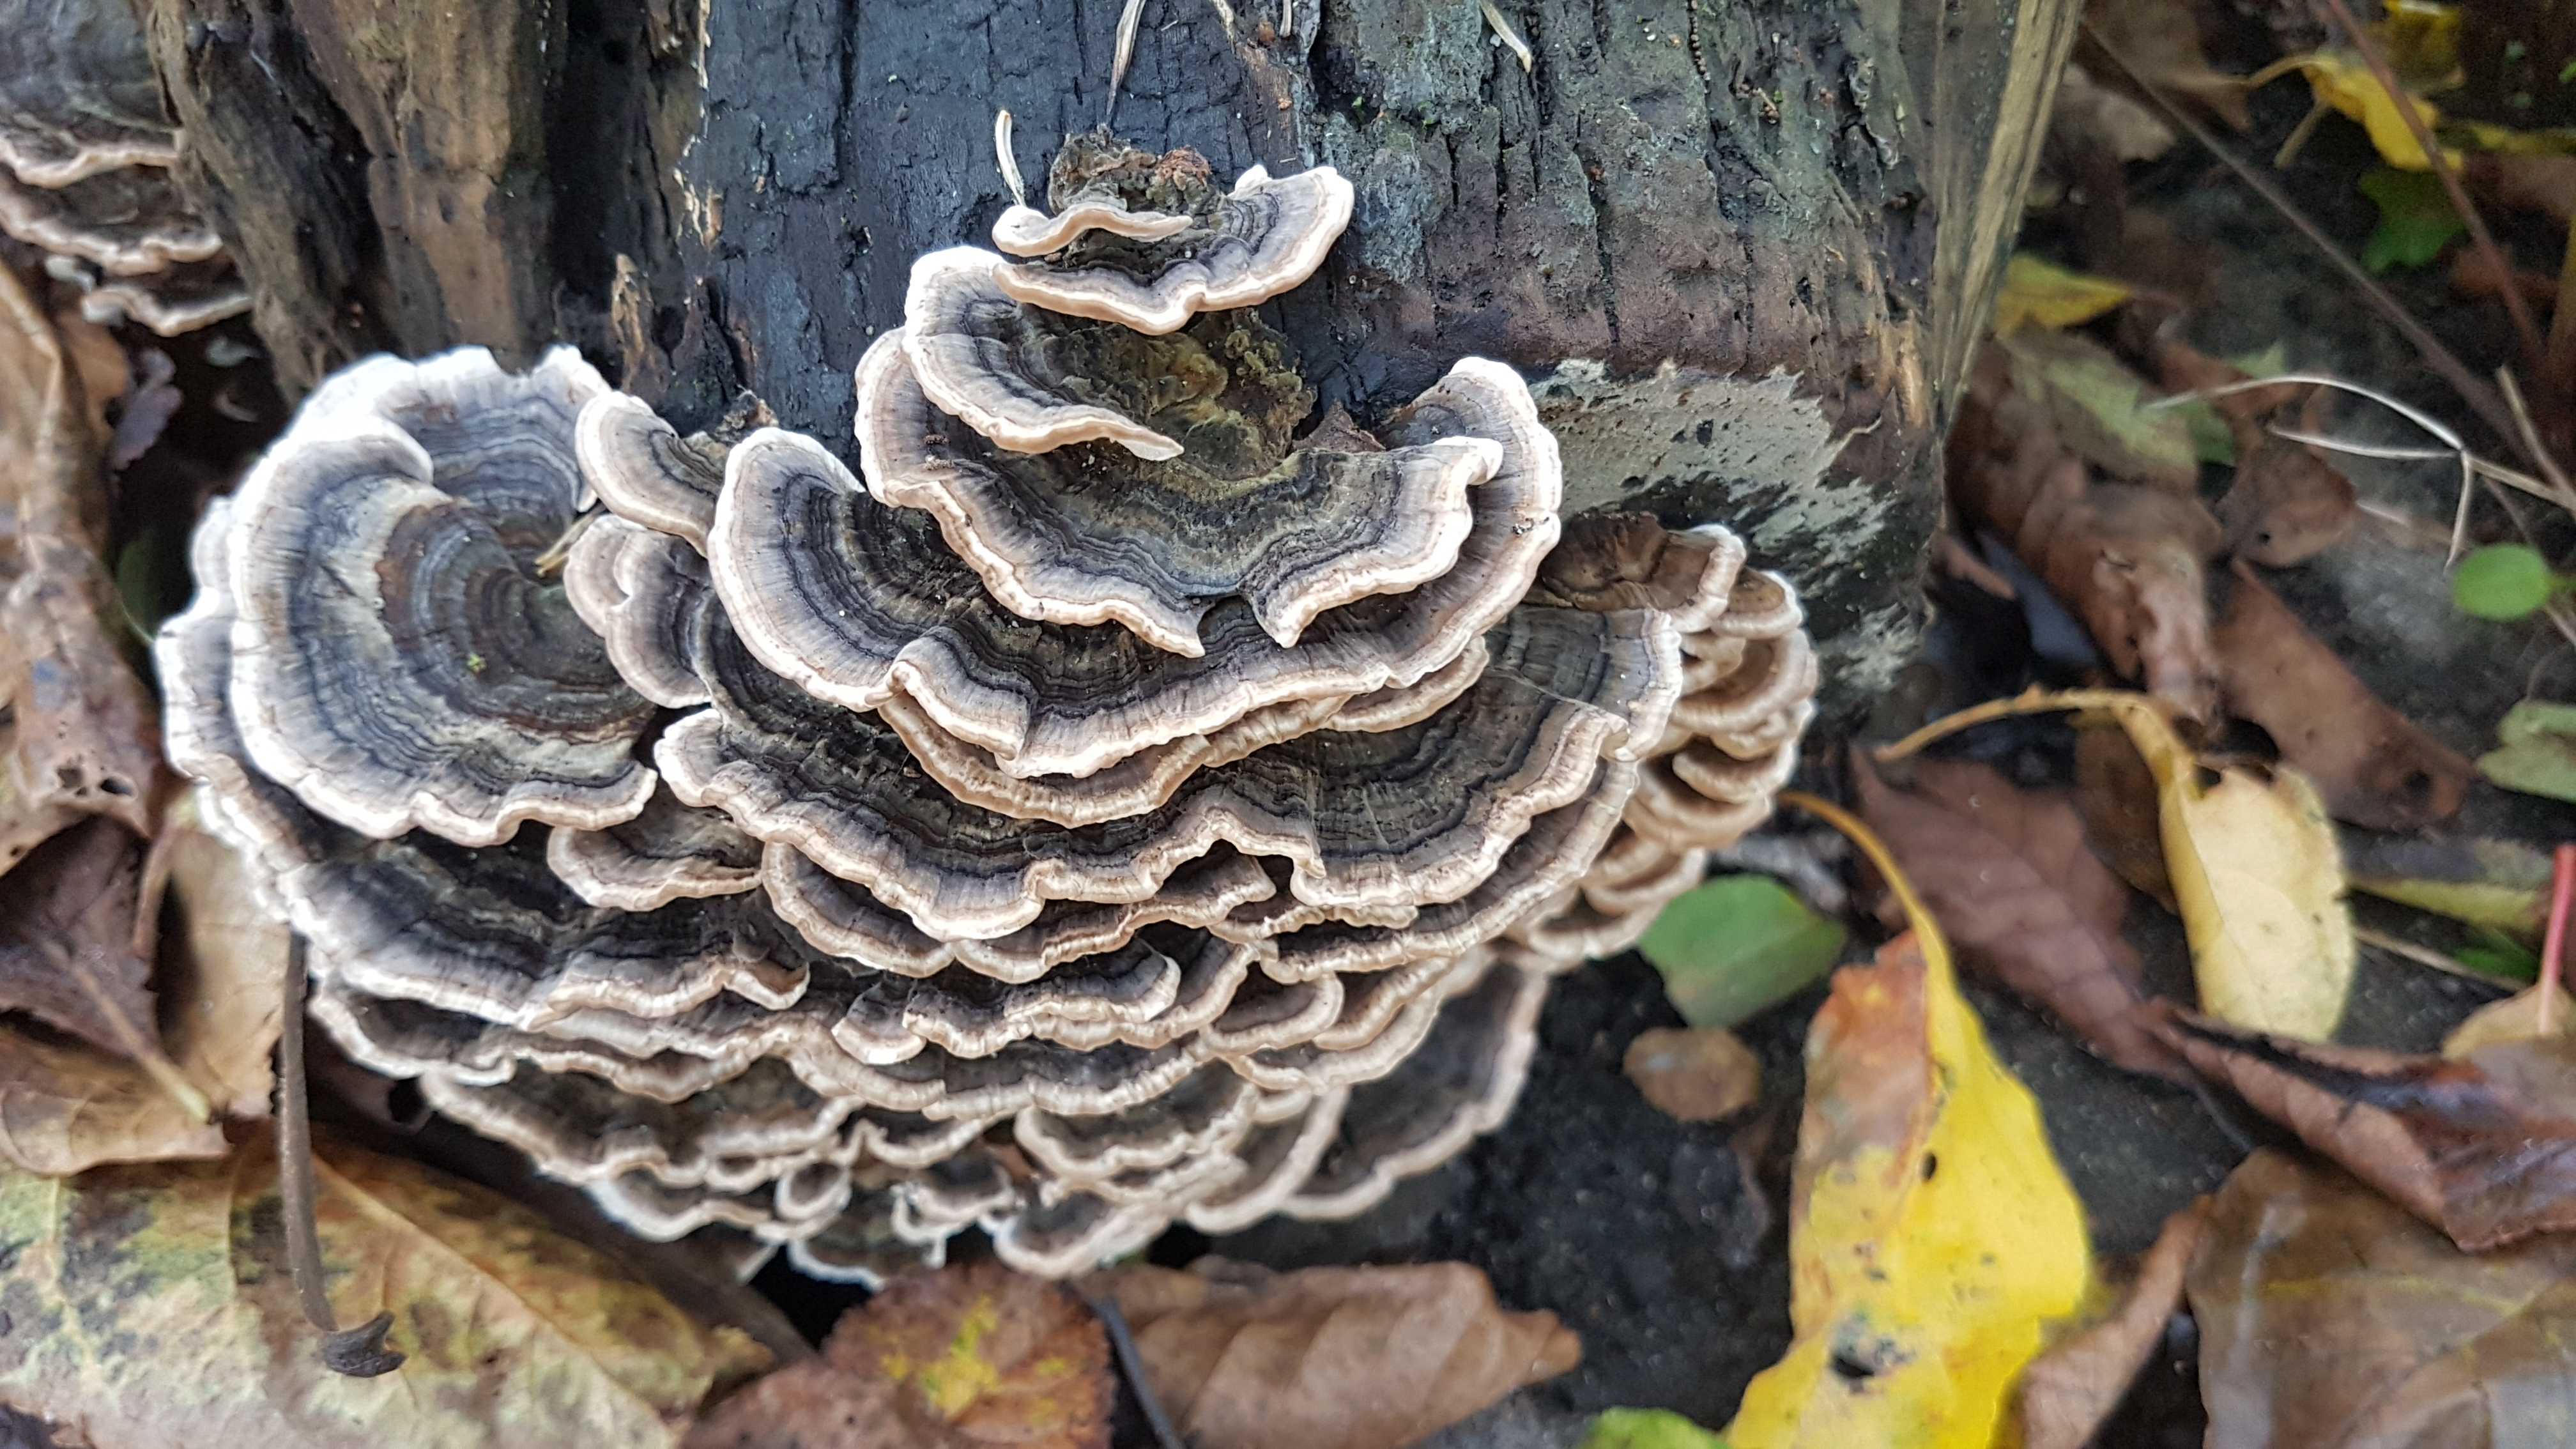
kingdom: Fungi
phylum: Basidiomycota
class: Agaricomycetes
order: Polyporales
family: Polyporaceae
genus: Trametes
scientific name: Trametes versicolor
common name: broget læderporesvamp
